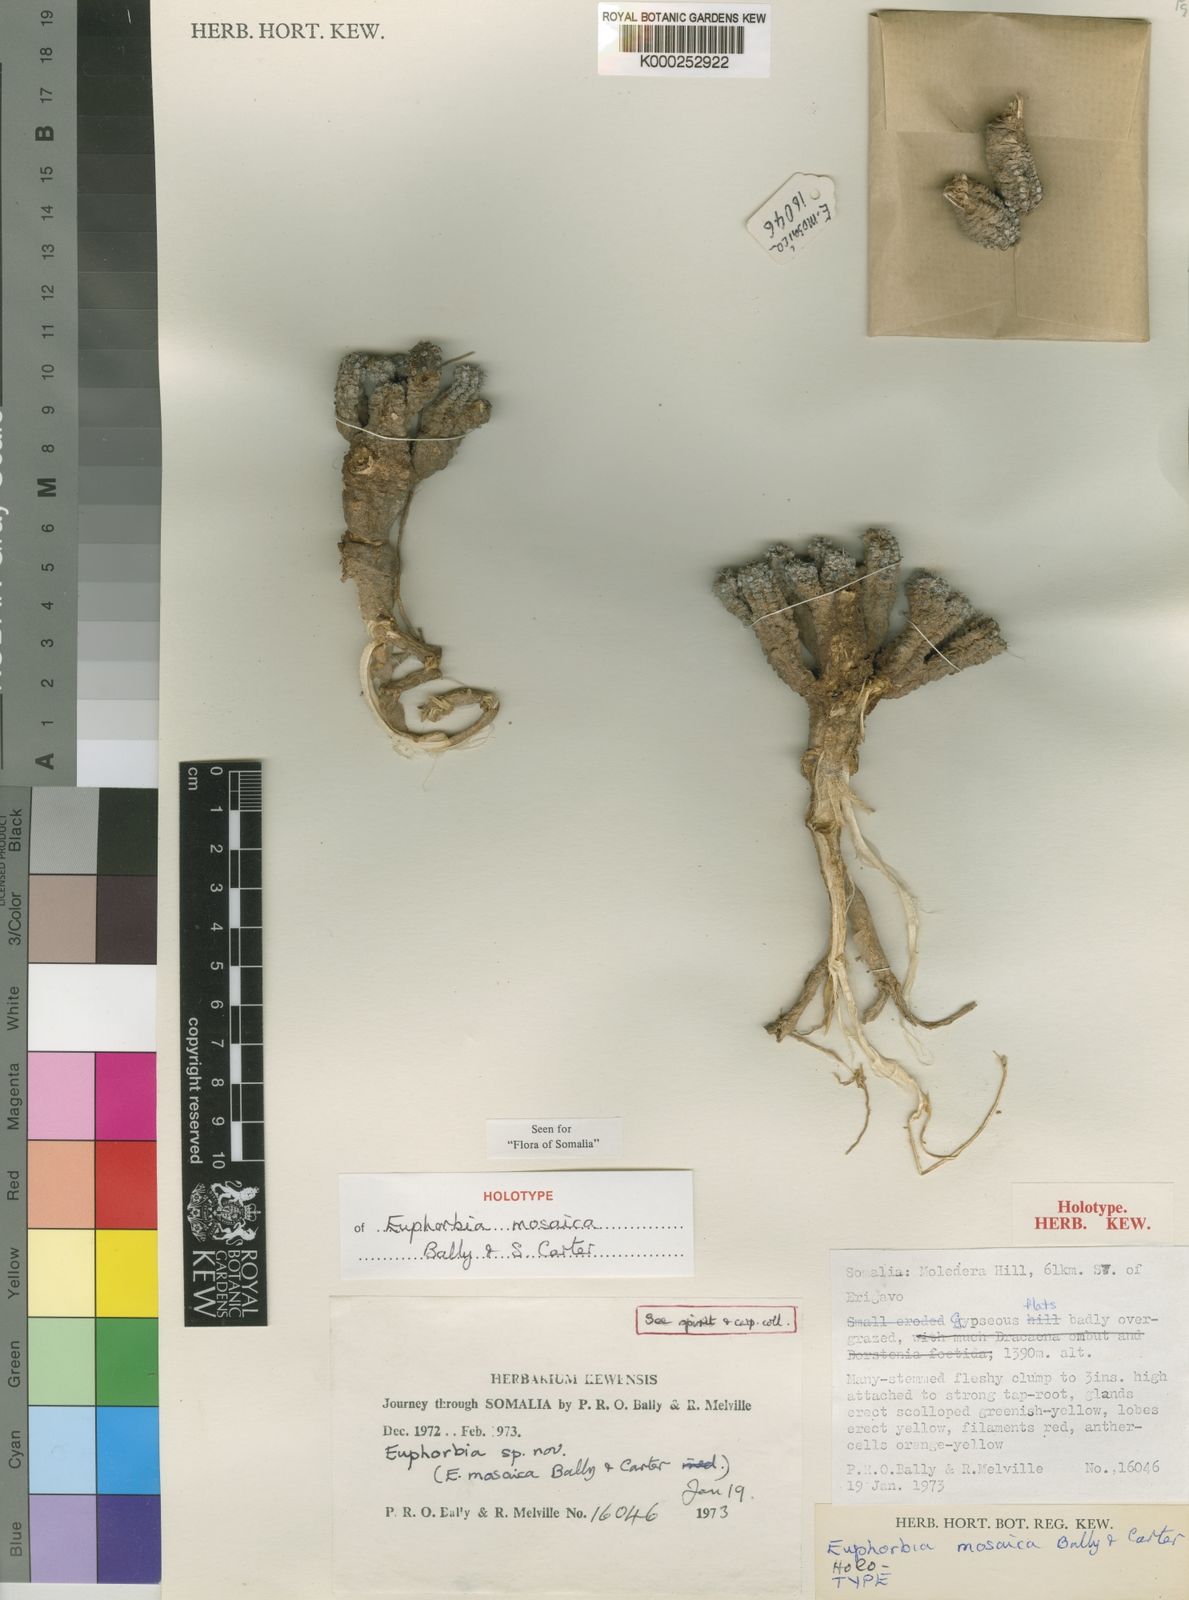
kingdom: Plantae
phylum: Tracheophyta
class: Magnoliopsida
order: Malpighiales
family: Euphorbiaceae
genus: Euphorbia
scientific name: Euphorbia mosaica
